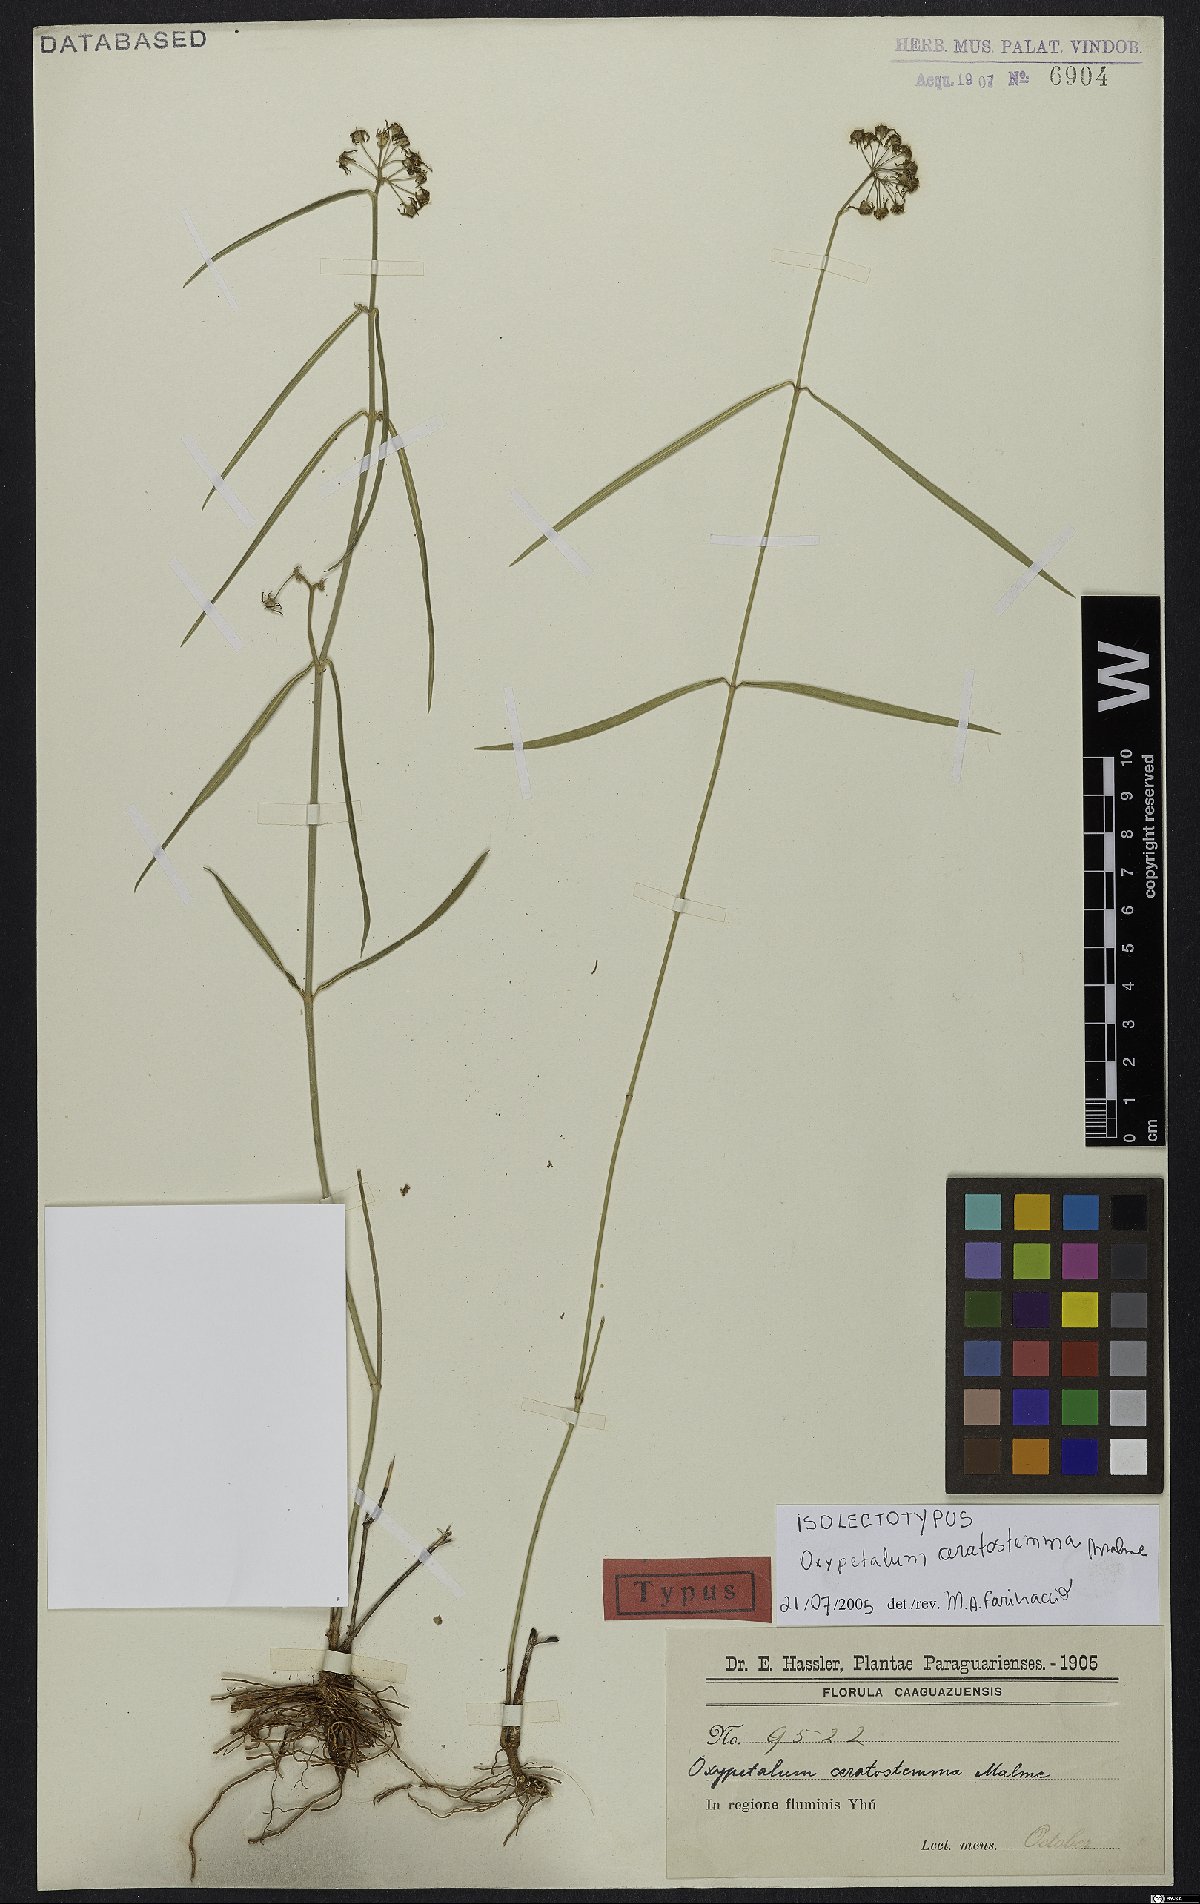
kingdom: Plantae
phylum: Tracheophyta
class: Magnoliopsida
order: Gentianales
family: Apocynaceae
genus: Oxypetalum
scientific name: Oxypetalum ceratostemma
